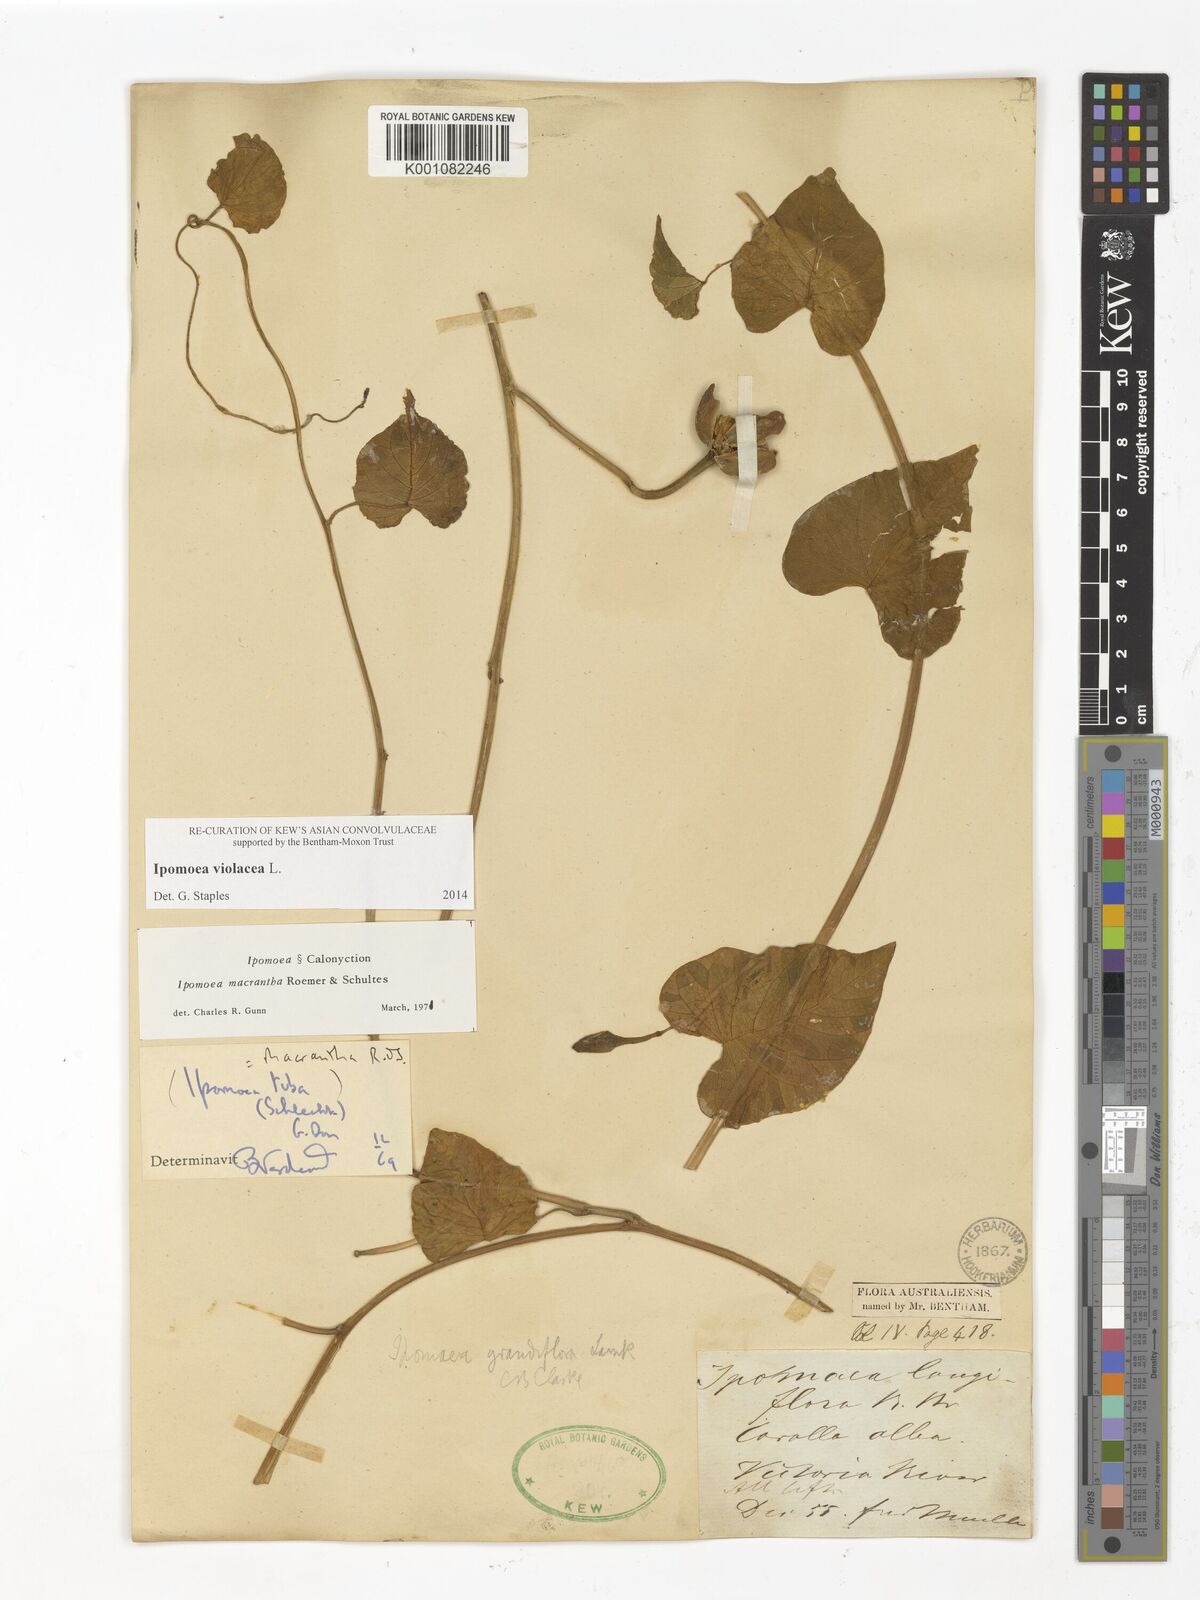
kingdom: Plantae
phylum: Tracheophyta
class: Magnoliopsida
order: Solanales
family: Convolvulaceae
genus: Ipomoea
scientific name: Ipomoea violacea
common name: Beach moonflower
